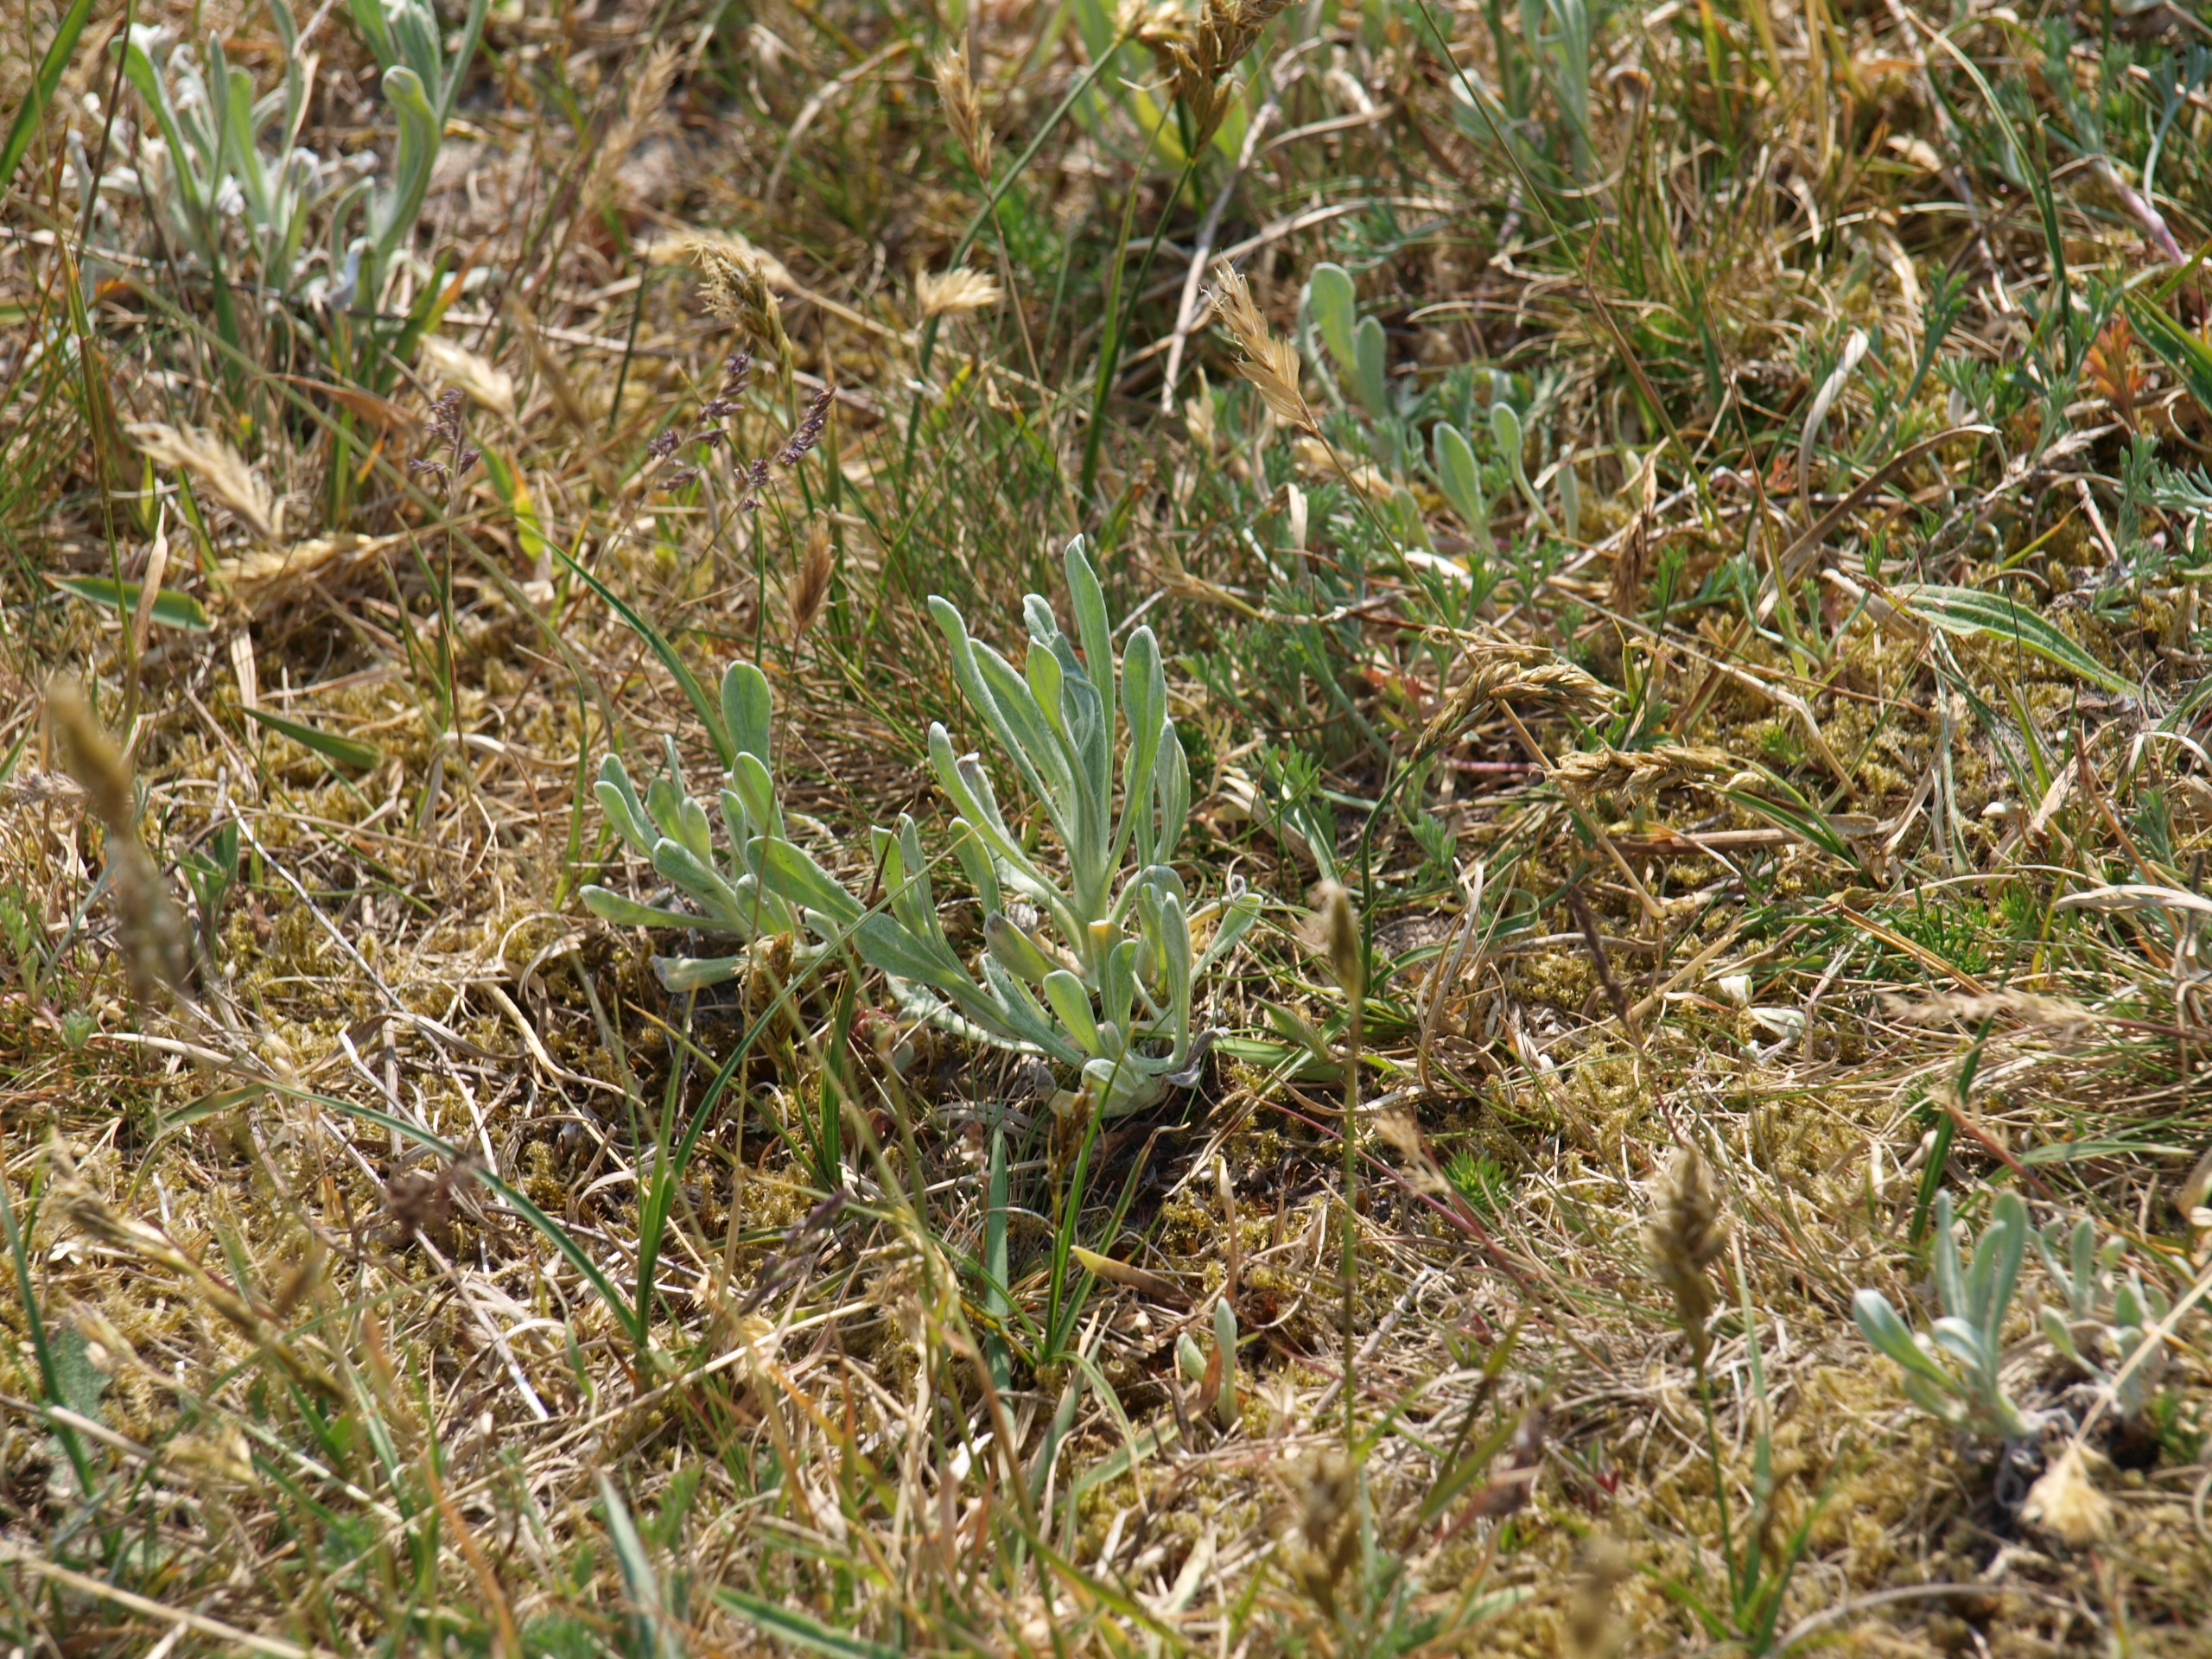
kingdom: Plantae
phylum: Tracheophyta
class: Magnoliopsida
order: Asterales
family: Asteraceae
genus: Helichrysum
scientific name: Helichrysum arenarium
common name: Gul evighedsblomst
